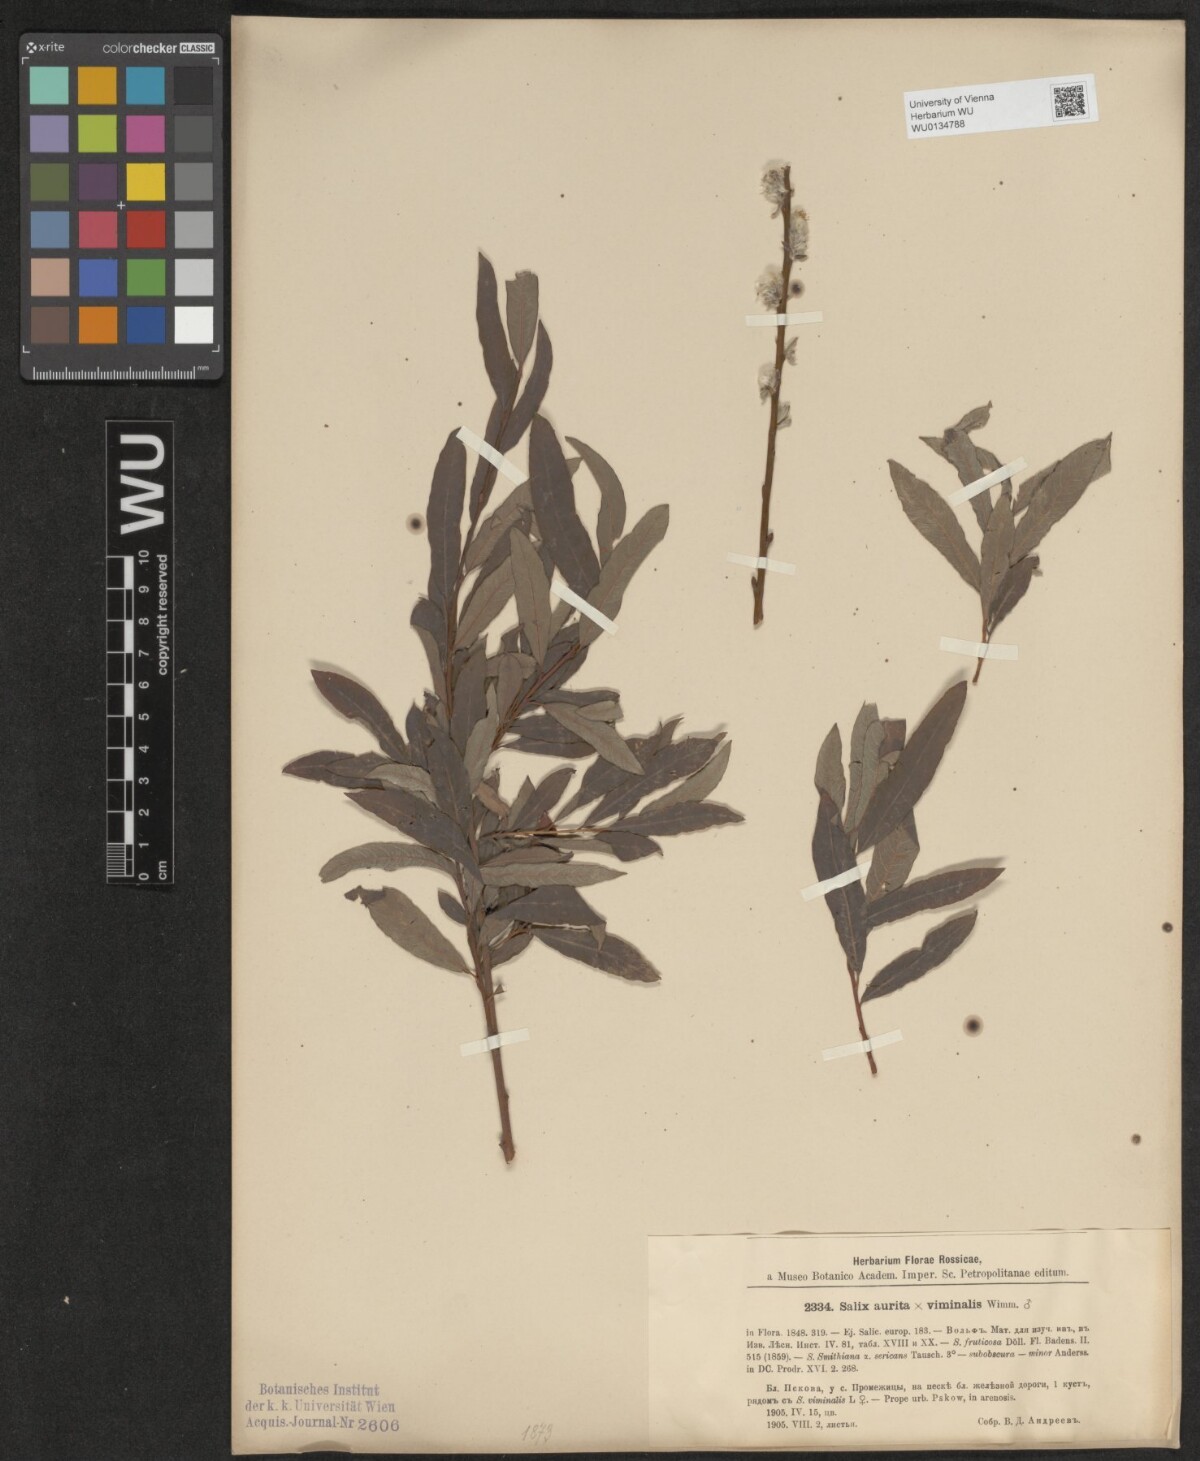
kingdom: Plantae
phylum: Tracheophyta
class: Magnoliopsida
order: Malpighiales
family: Salicaceae
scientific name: Salicaceae
